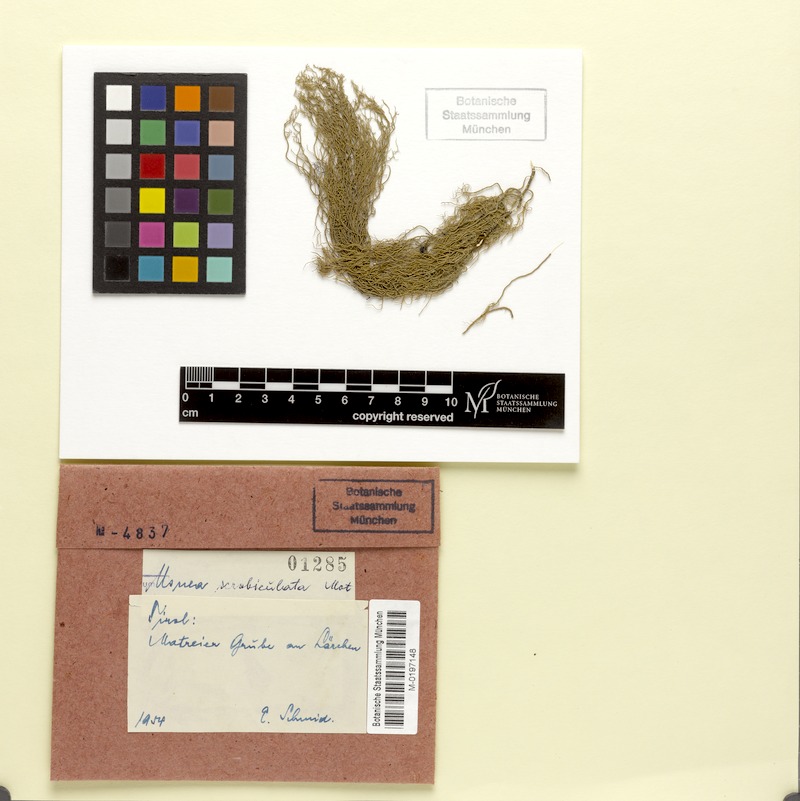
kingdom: Fungi
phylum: Ascomycota
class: Lecanoromycetes
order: Lecanorales
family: Parmeliaceae
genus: Usnea
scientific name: Usnea barbata
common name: Old man's beard lichen
